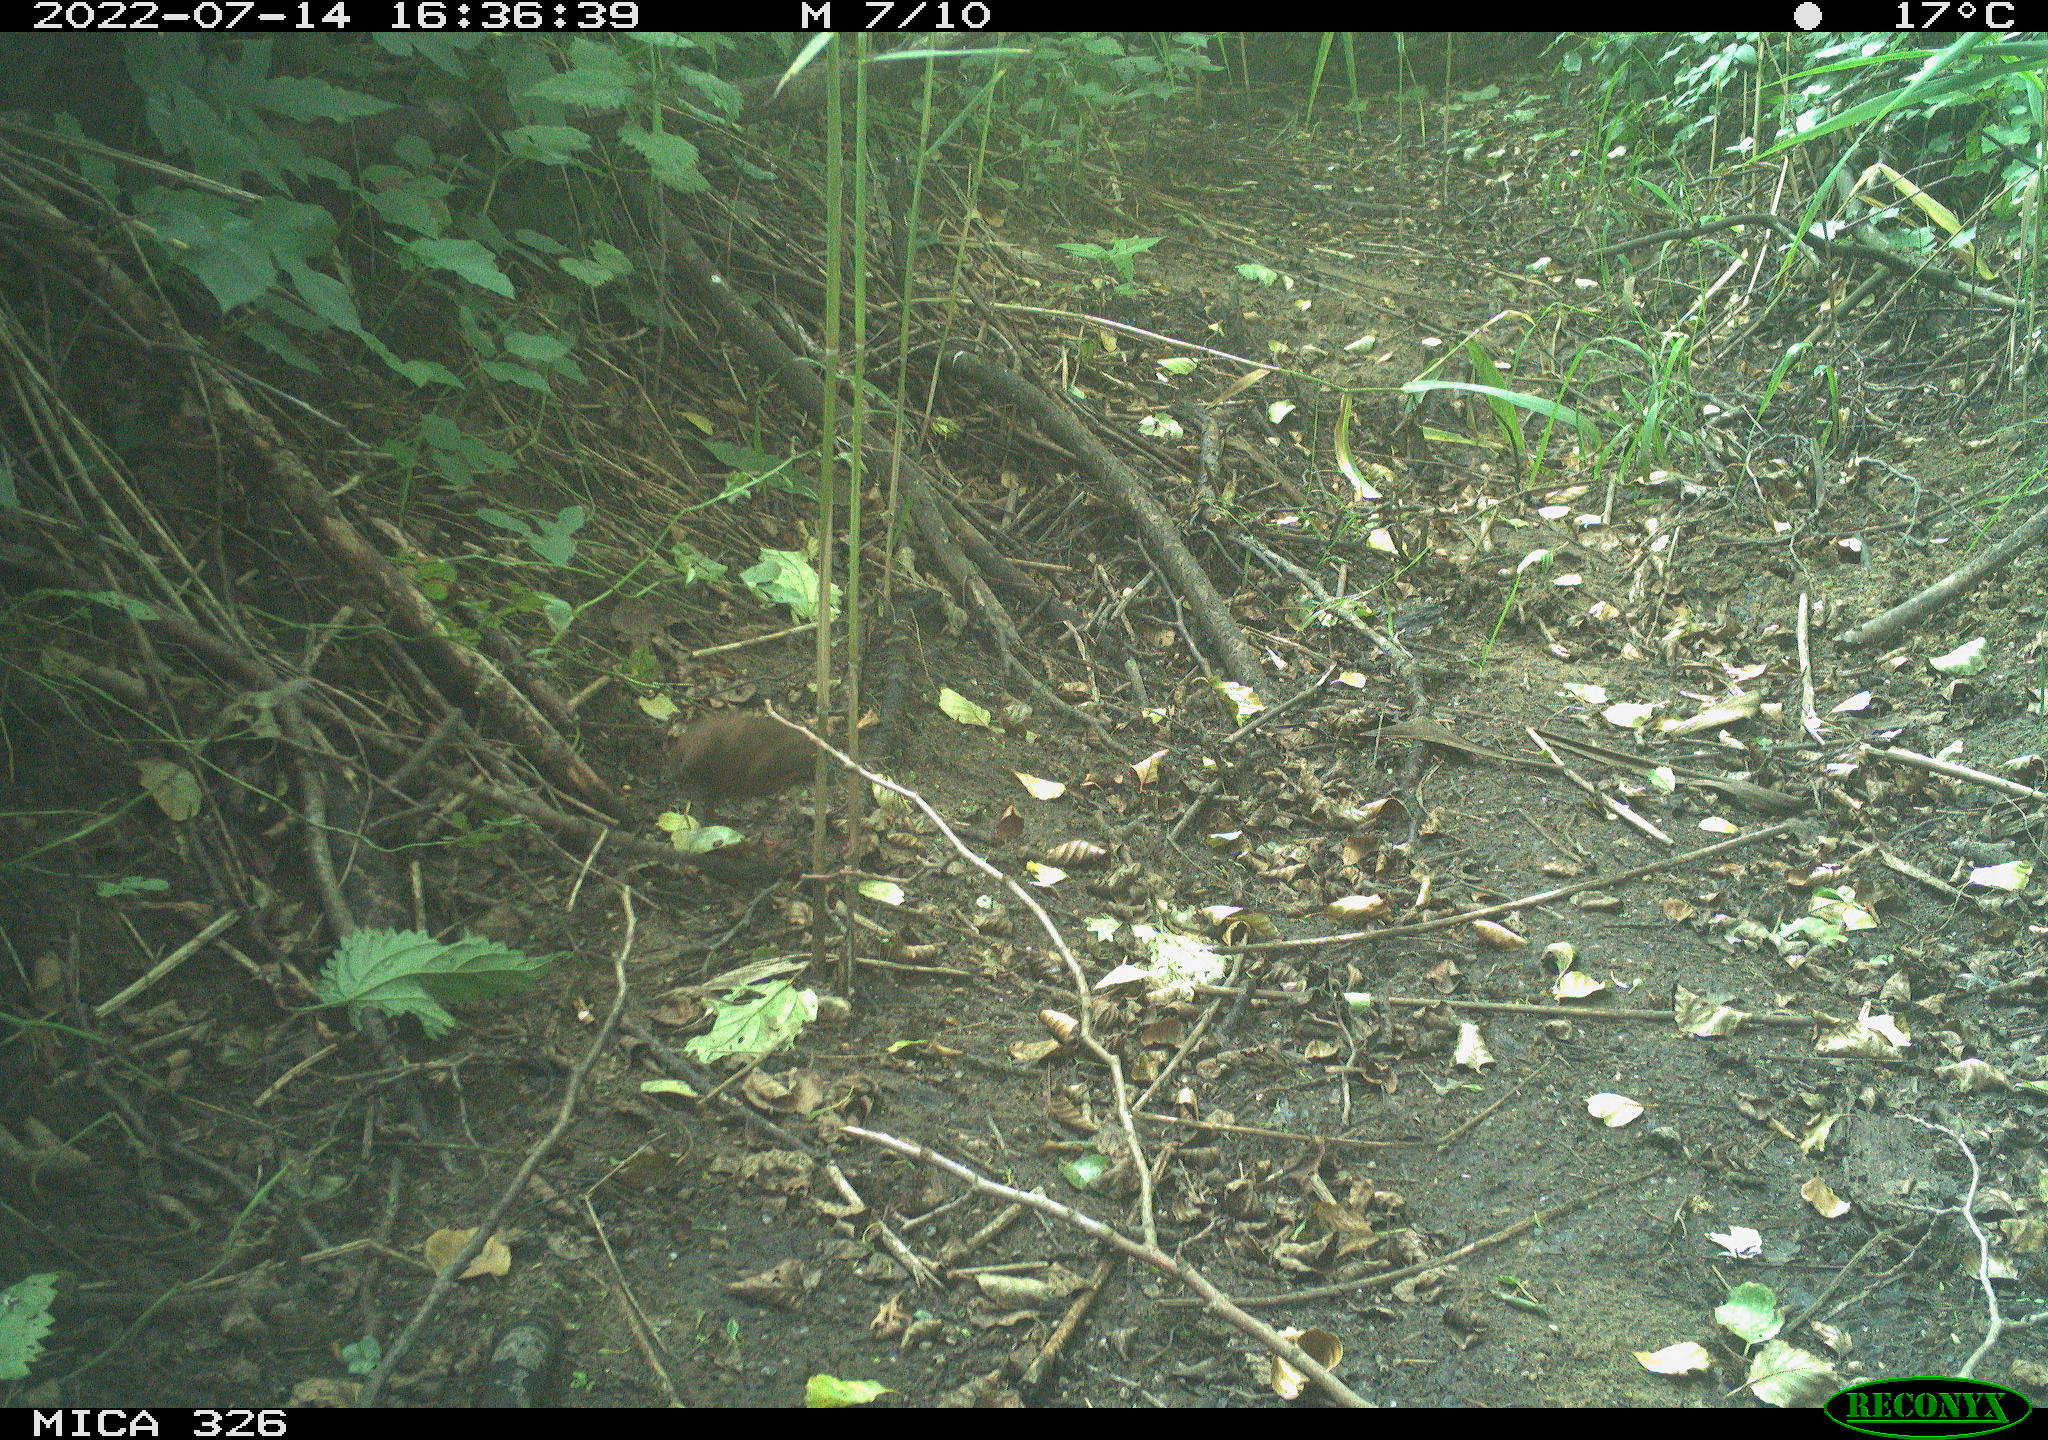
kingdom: Animalia
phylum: Chordata
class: Aves
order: Passeriformes
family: Turdidae
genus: Turdus
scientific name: Turdus merula
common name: Common blackbird
